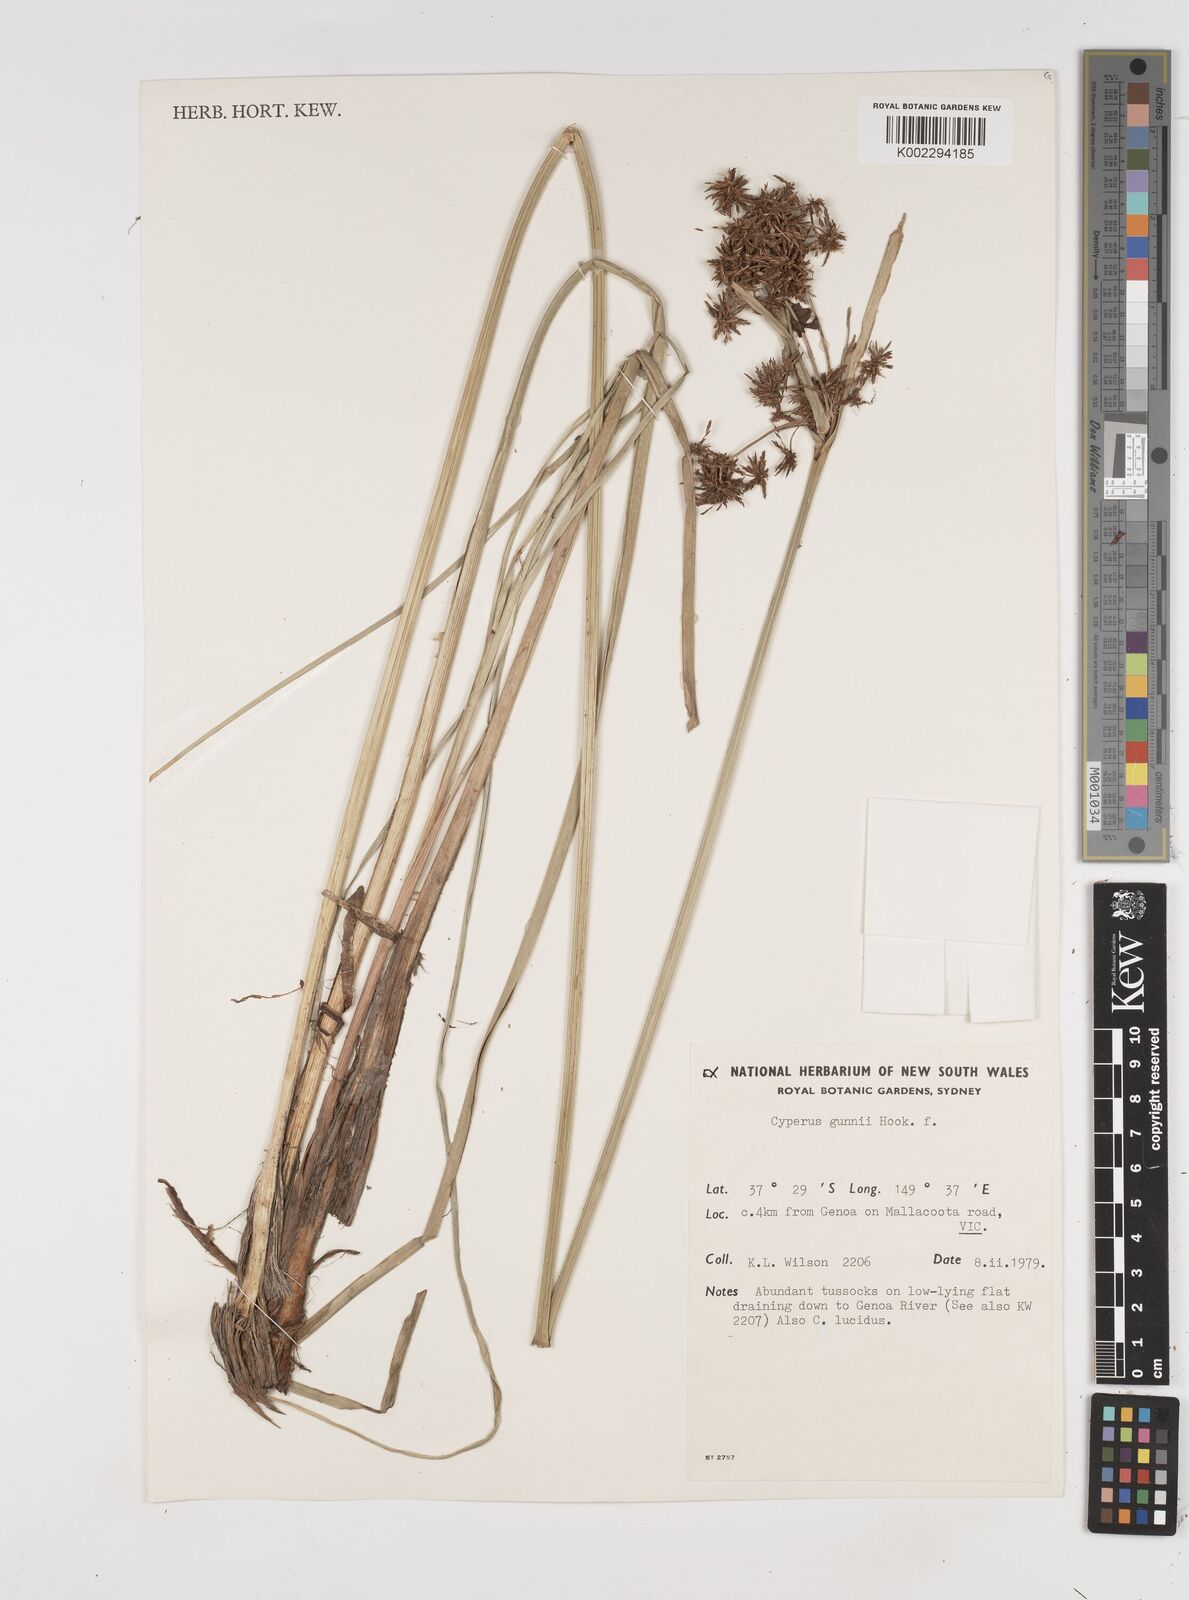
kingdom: Plantae
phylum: Tracheophyta
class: Liliopsida
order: Poales
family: Cyperaceae
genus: Cyperus
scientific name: Cyperus gunnii
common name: Flecked flat-sedge
